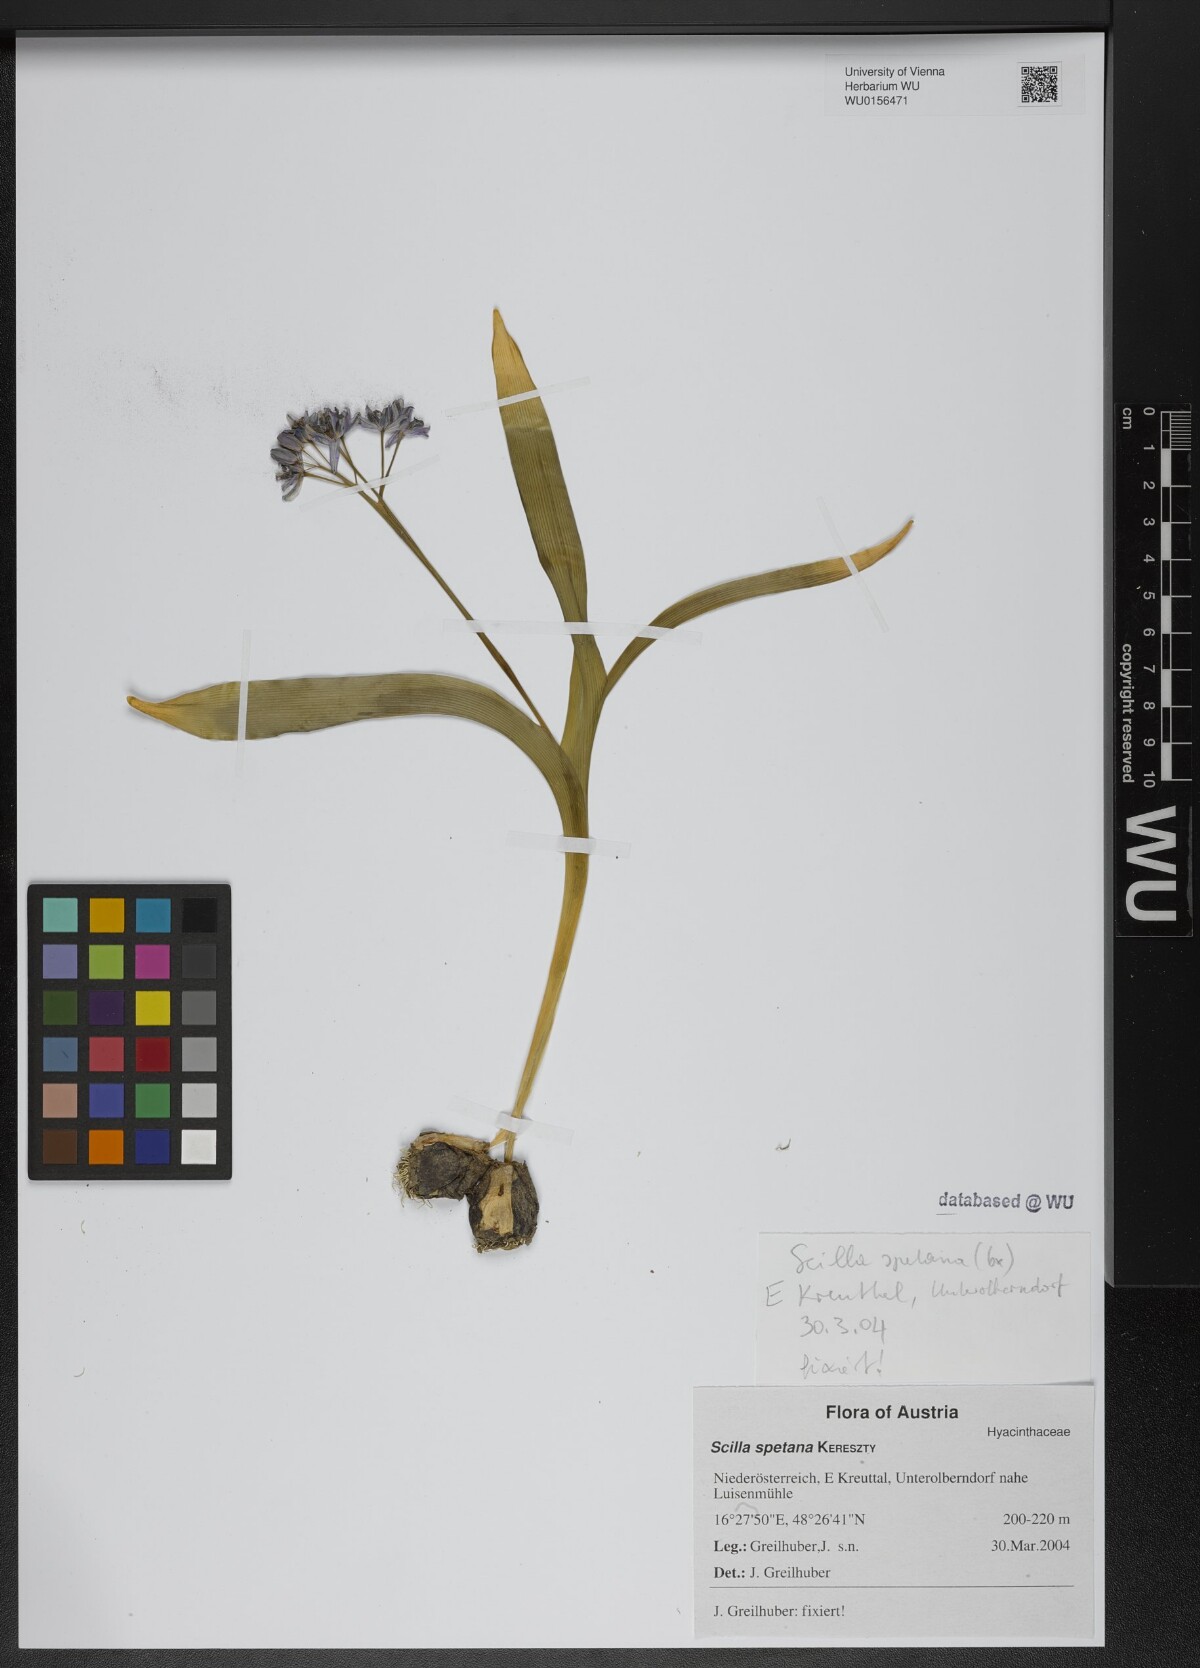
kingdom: Plantae
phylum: Tracheophyta
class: Liliopsida
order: Asparagales
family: Asparagaceae
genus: Scilla
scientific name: Scilla bifolia
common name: Alpine squill
